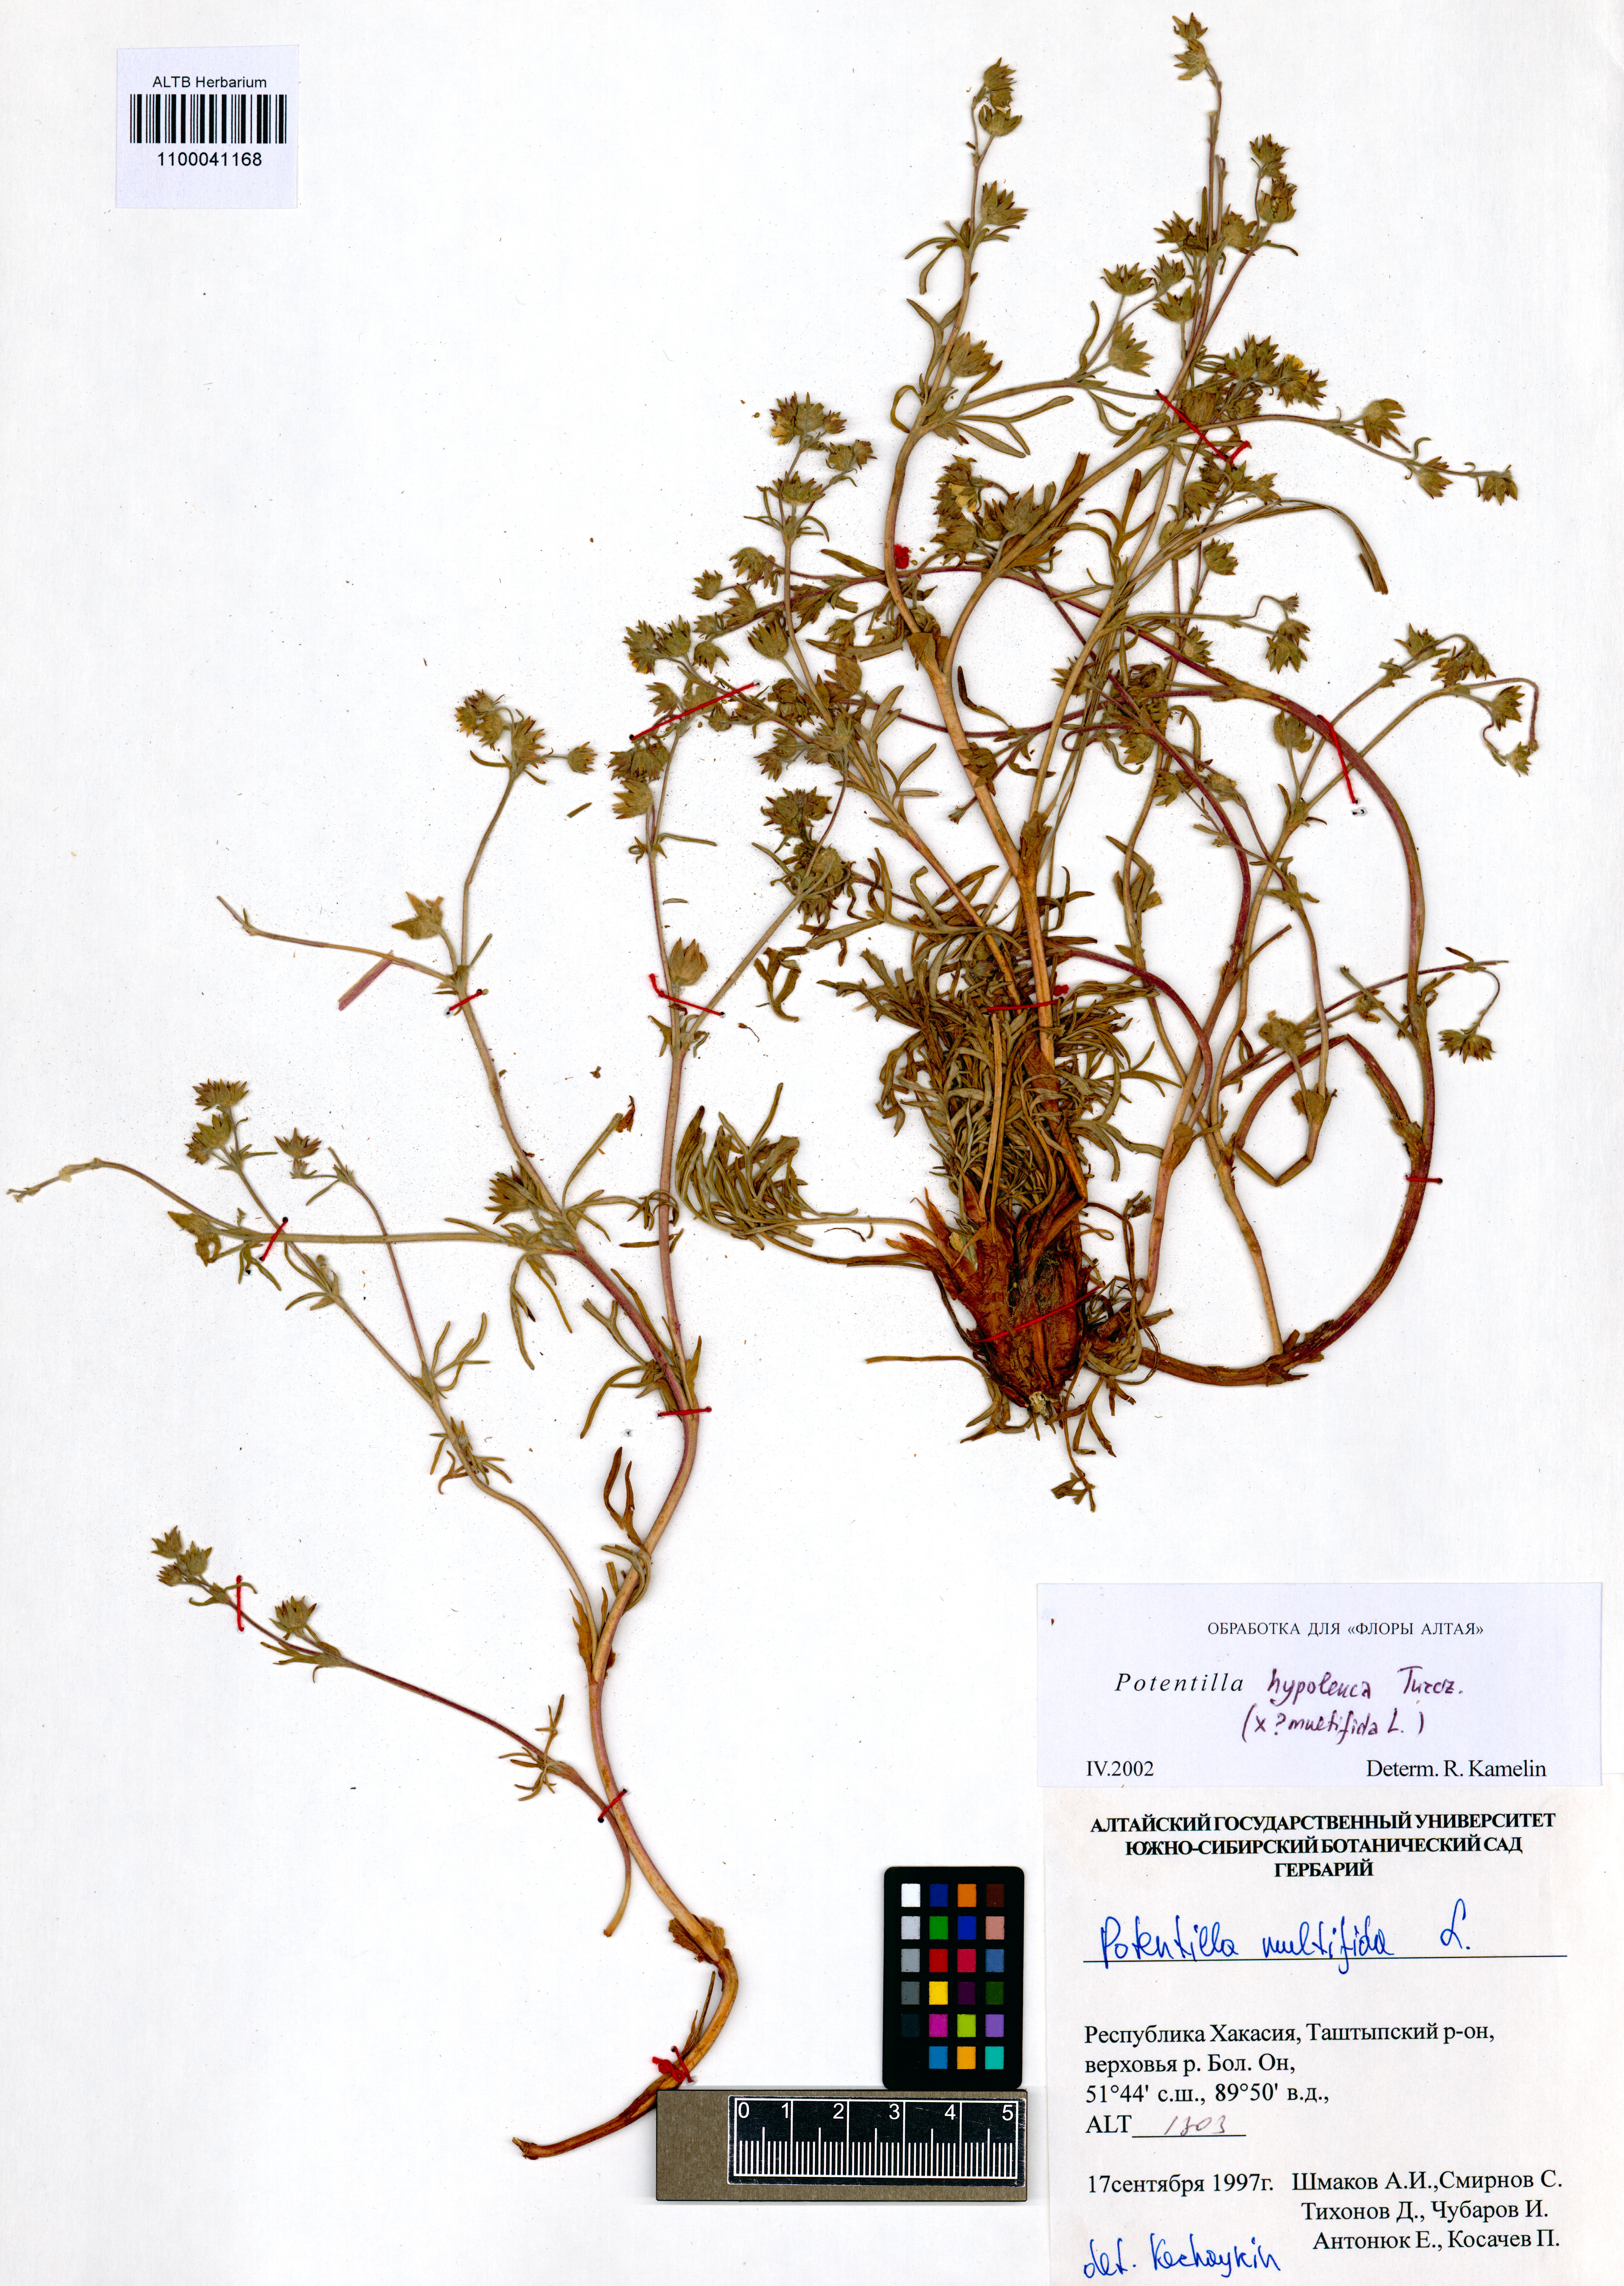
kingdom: Plantae
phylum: Tracheophyta
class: Magnoliopsida
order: Rosales
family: Rosaceae
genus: Potentilla
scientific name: Potentilla multifida
